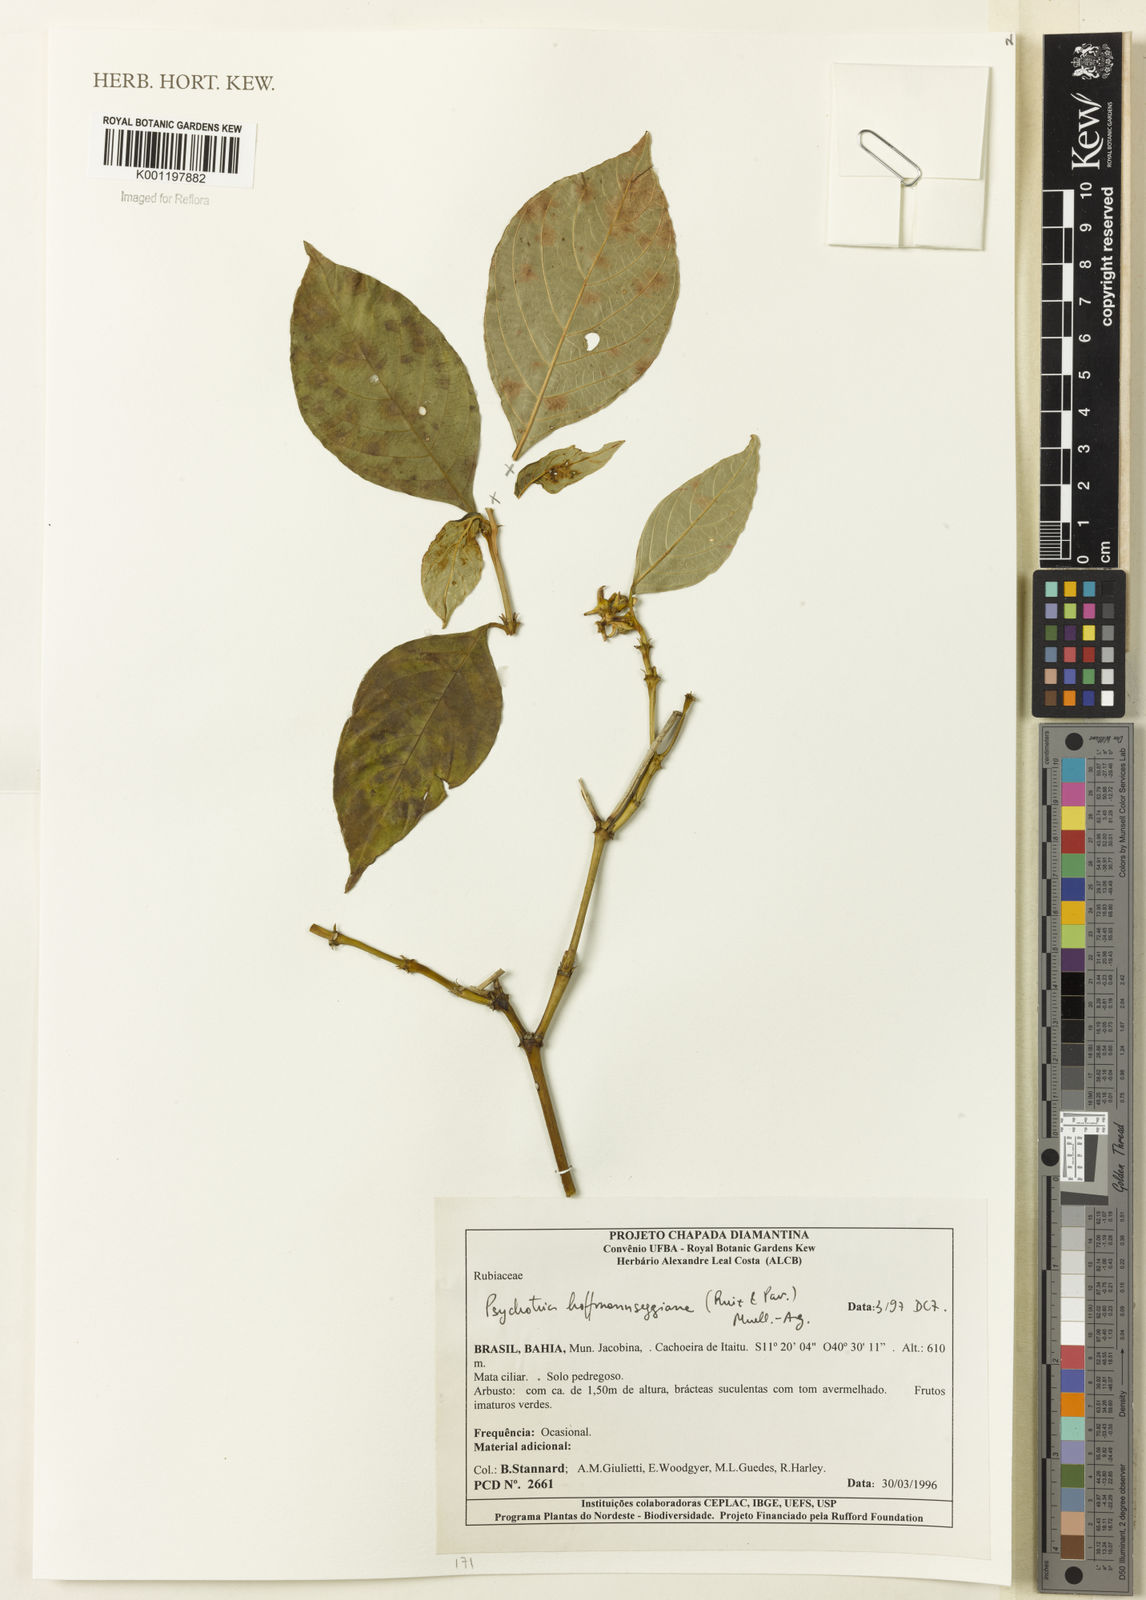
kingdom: Plantae
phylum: Tracheophyta
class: Magnoliopsida
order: Gentianales
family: Rubiaceae
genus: Psychotria
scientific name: Psychotria
